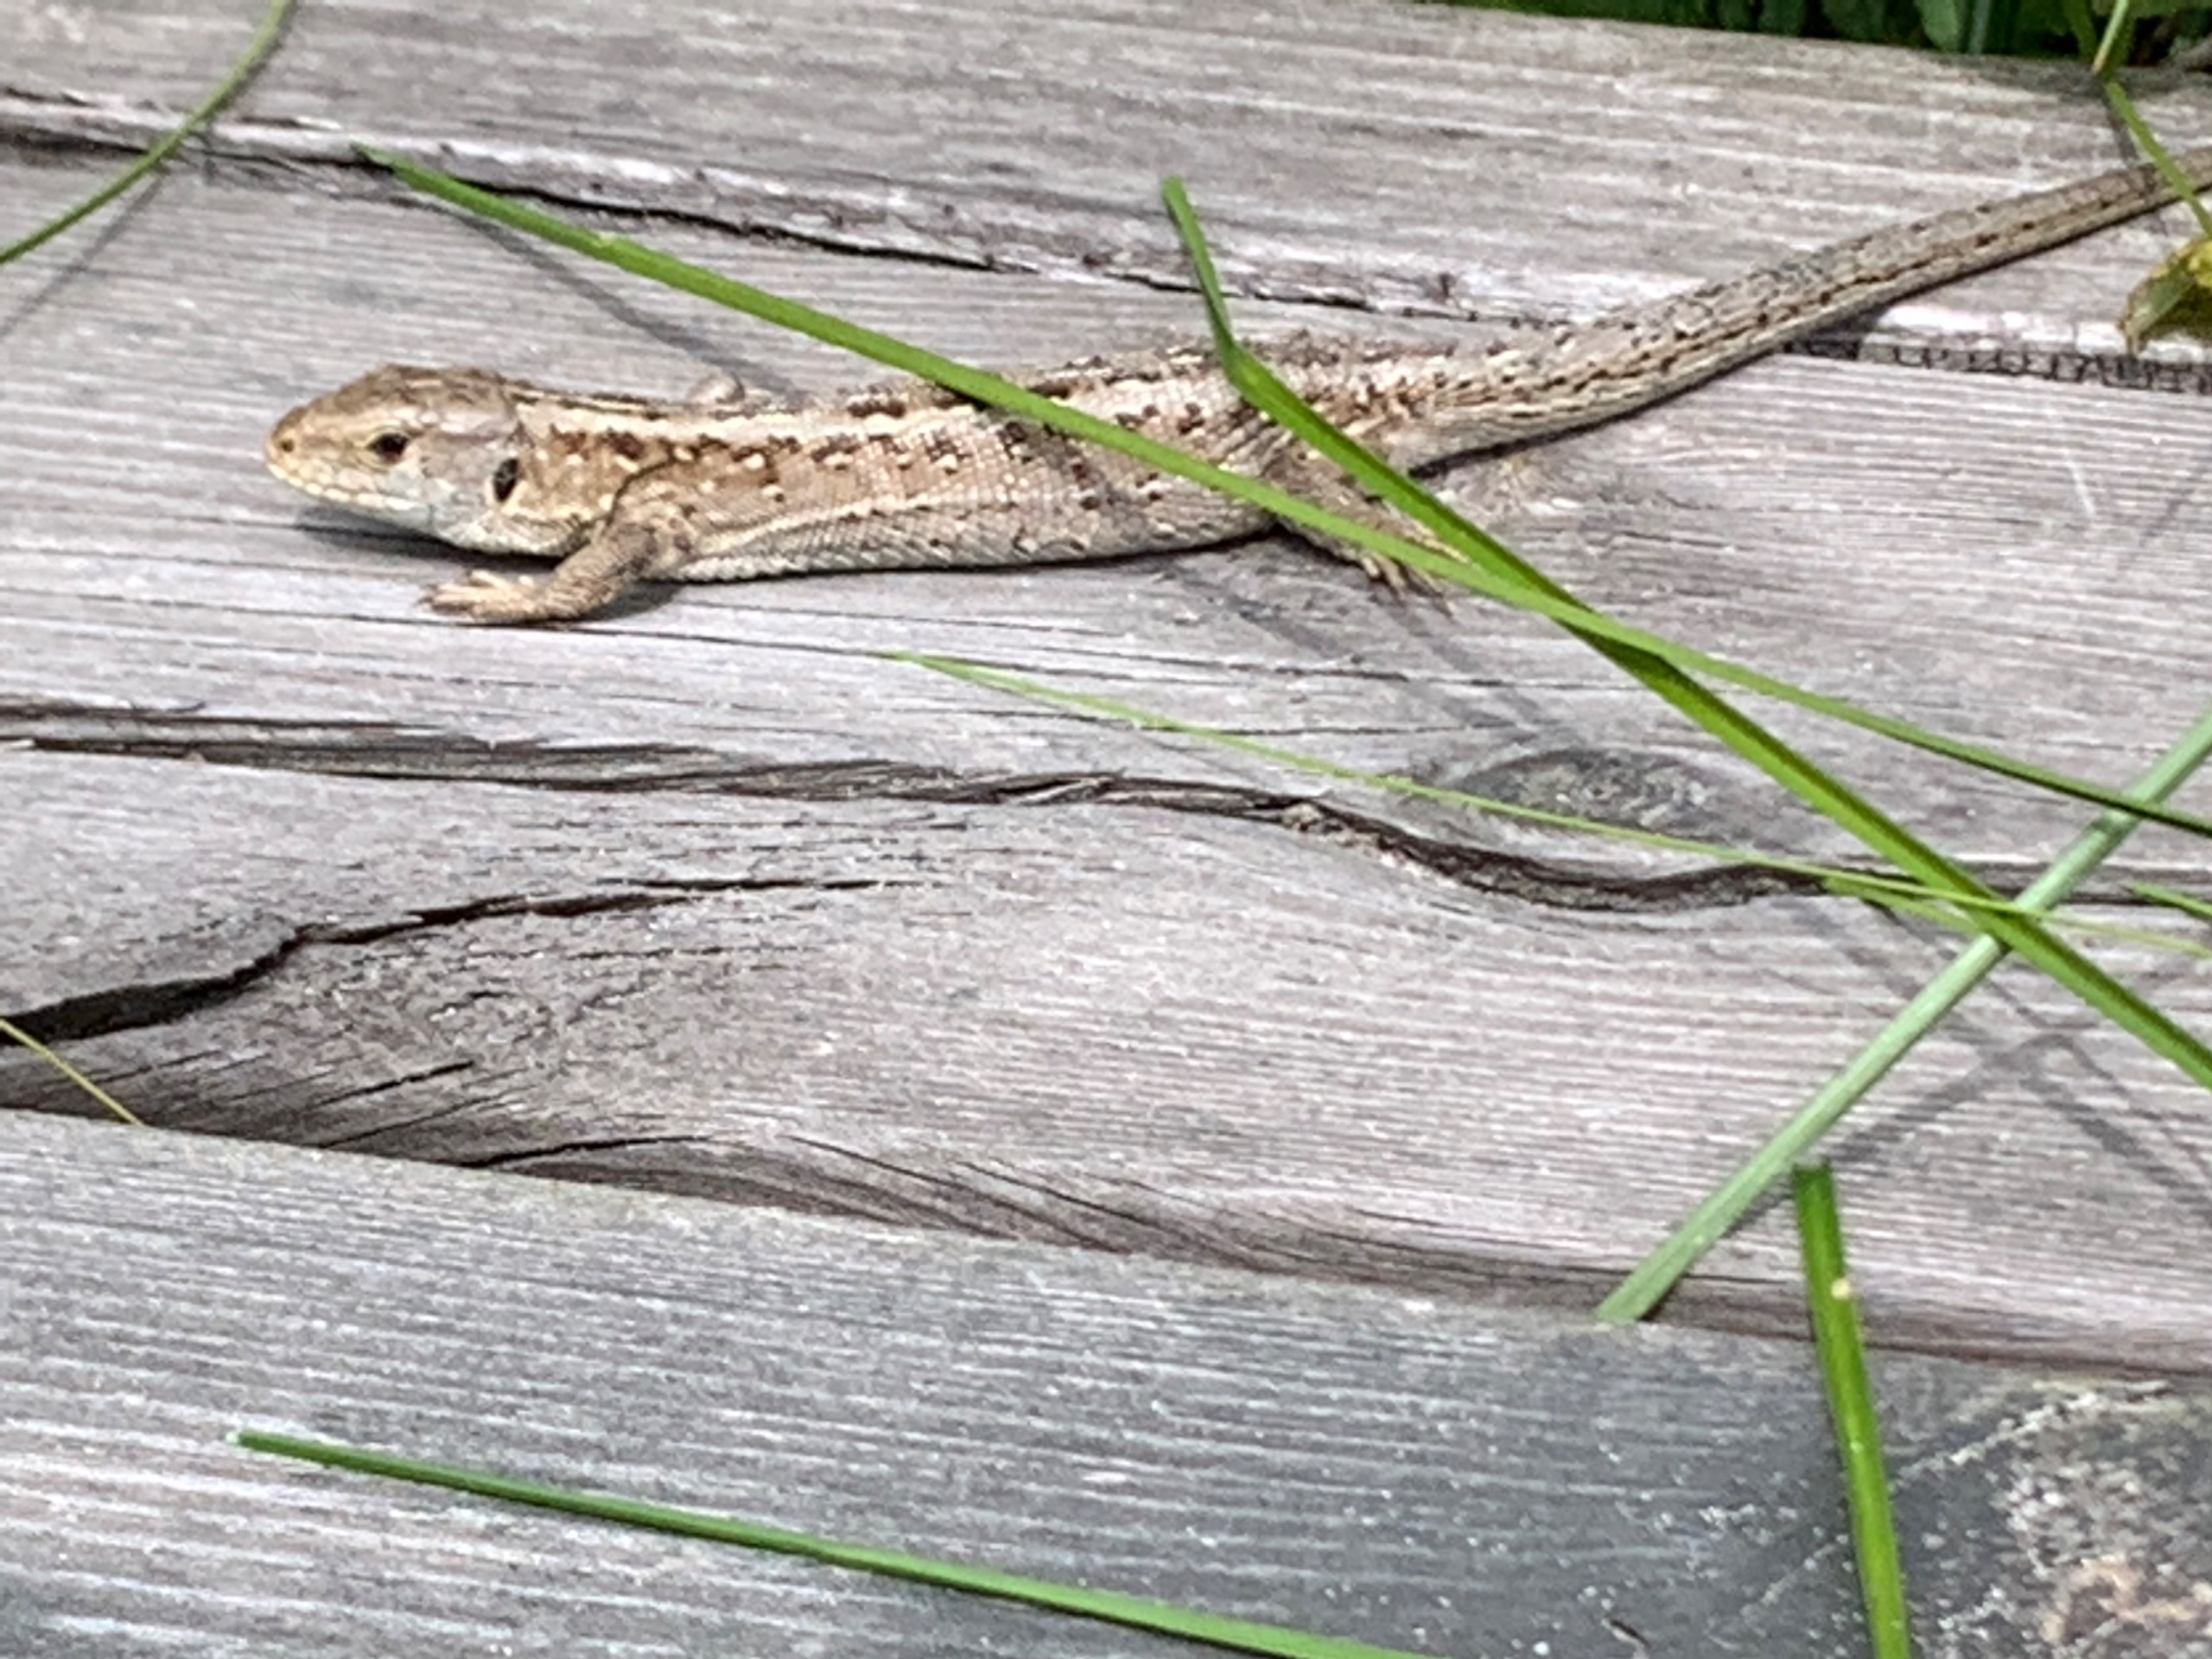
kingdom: Animalia
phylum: Chordata
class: Squamata
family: Lacertidae
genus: Lacerta
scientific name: Lacerta agilis
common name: Markfirben
